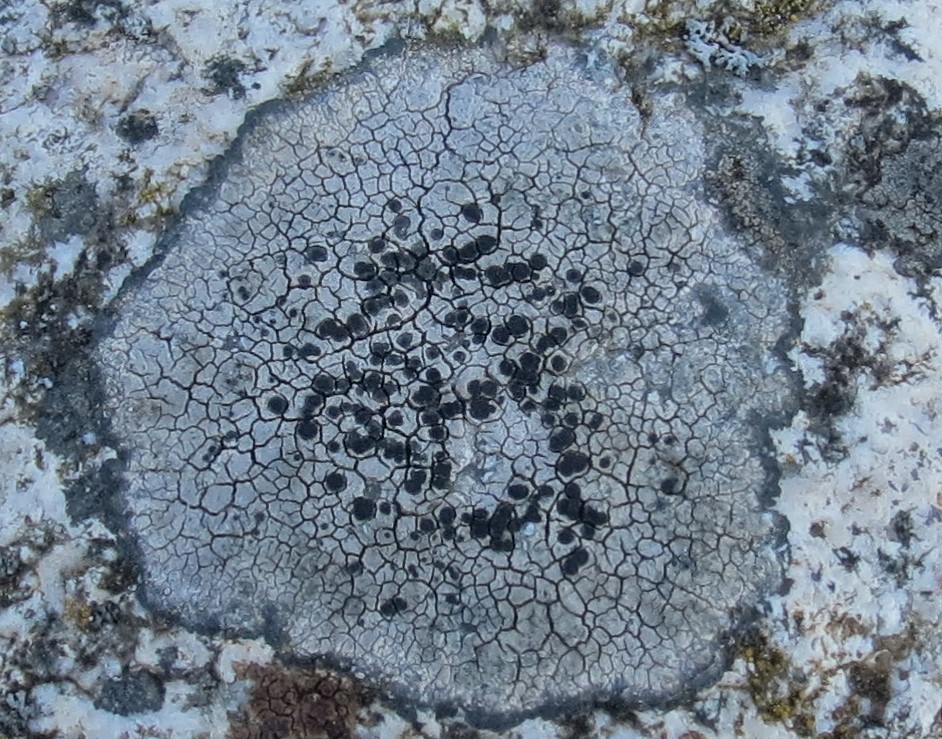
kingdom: Fungi
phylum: Ascomycota
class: Lecanoromycetes
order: Lecideales
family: Lecideaceae
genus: Lecidea
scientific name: Lecidea fuscoatra
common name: rudret skivelav
